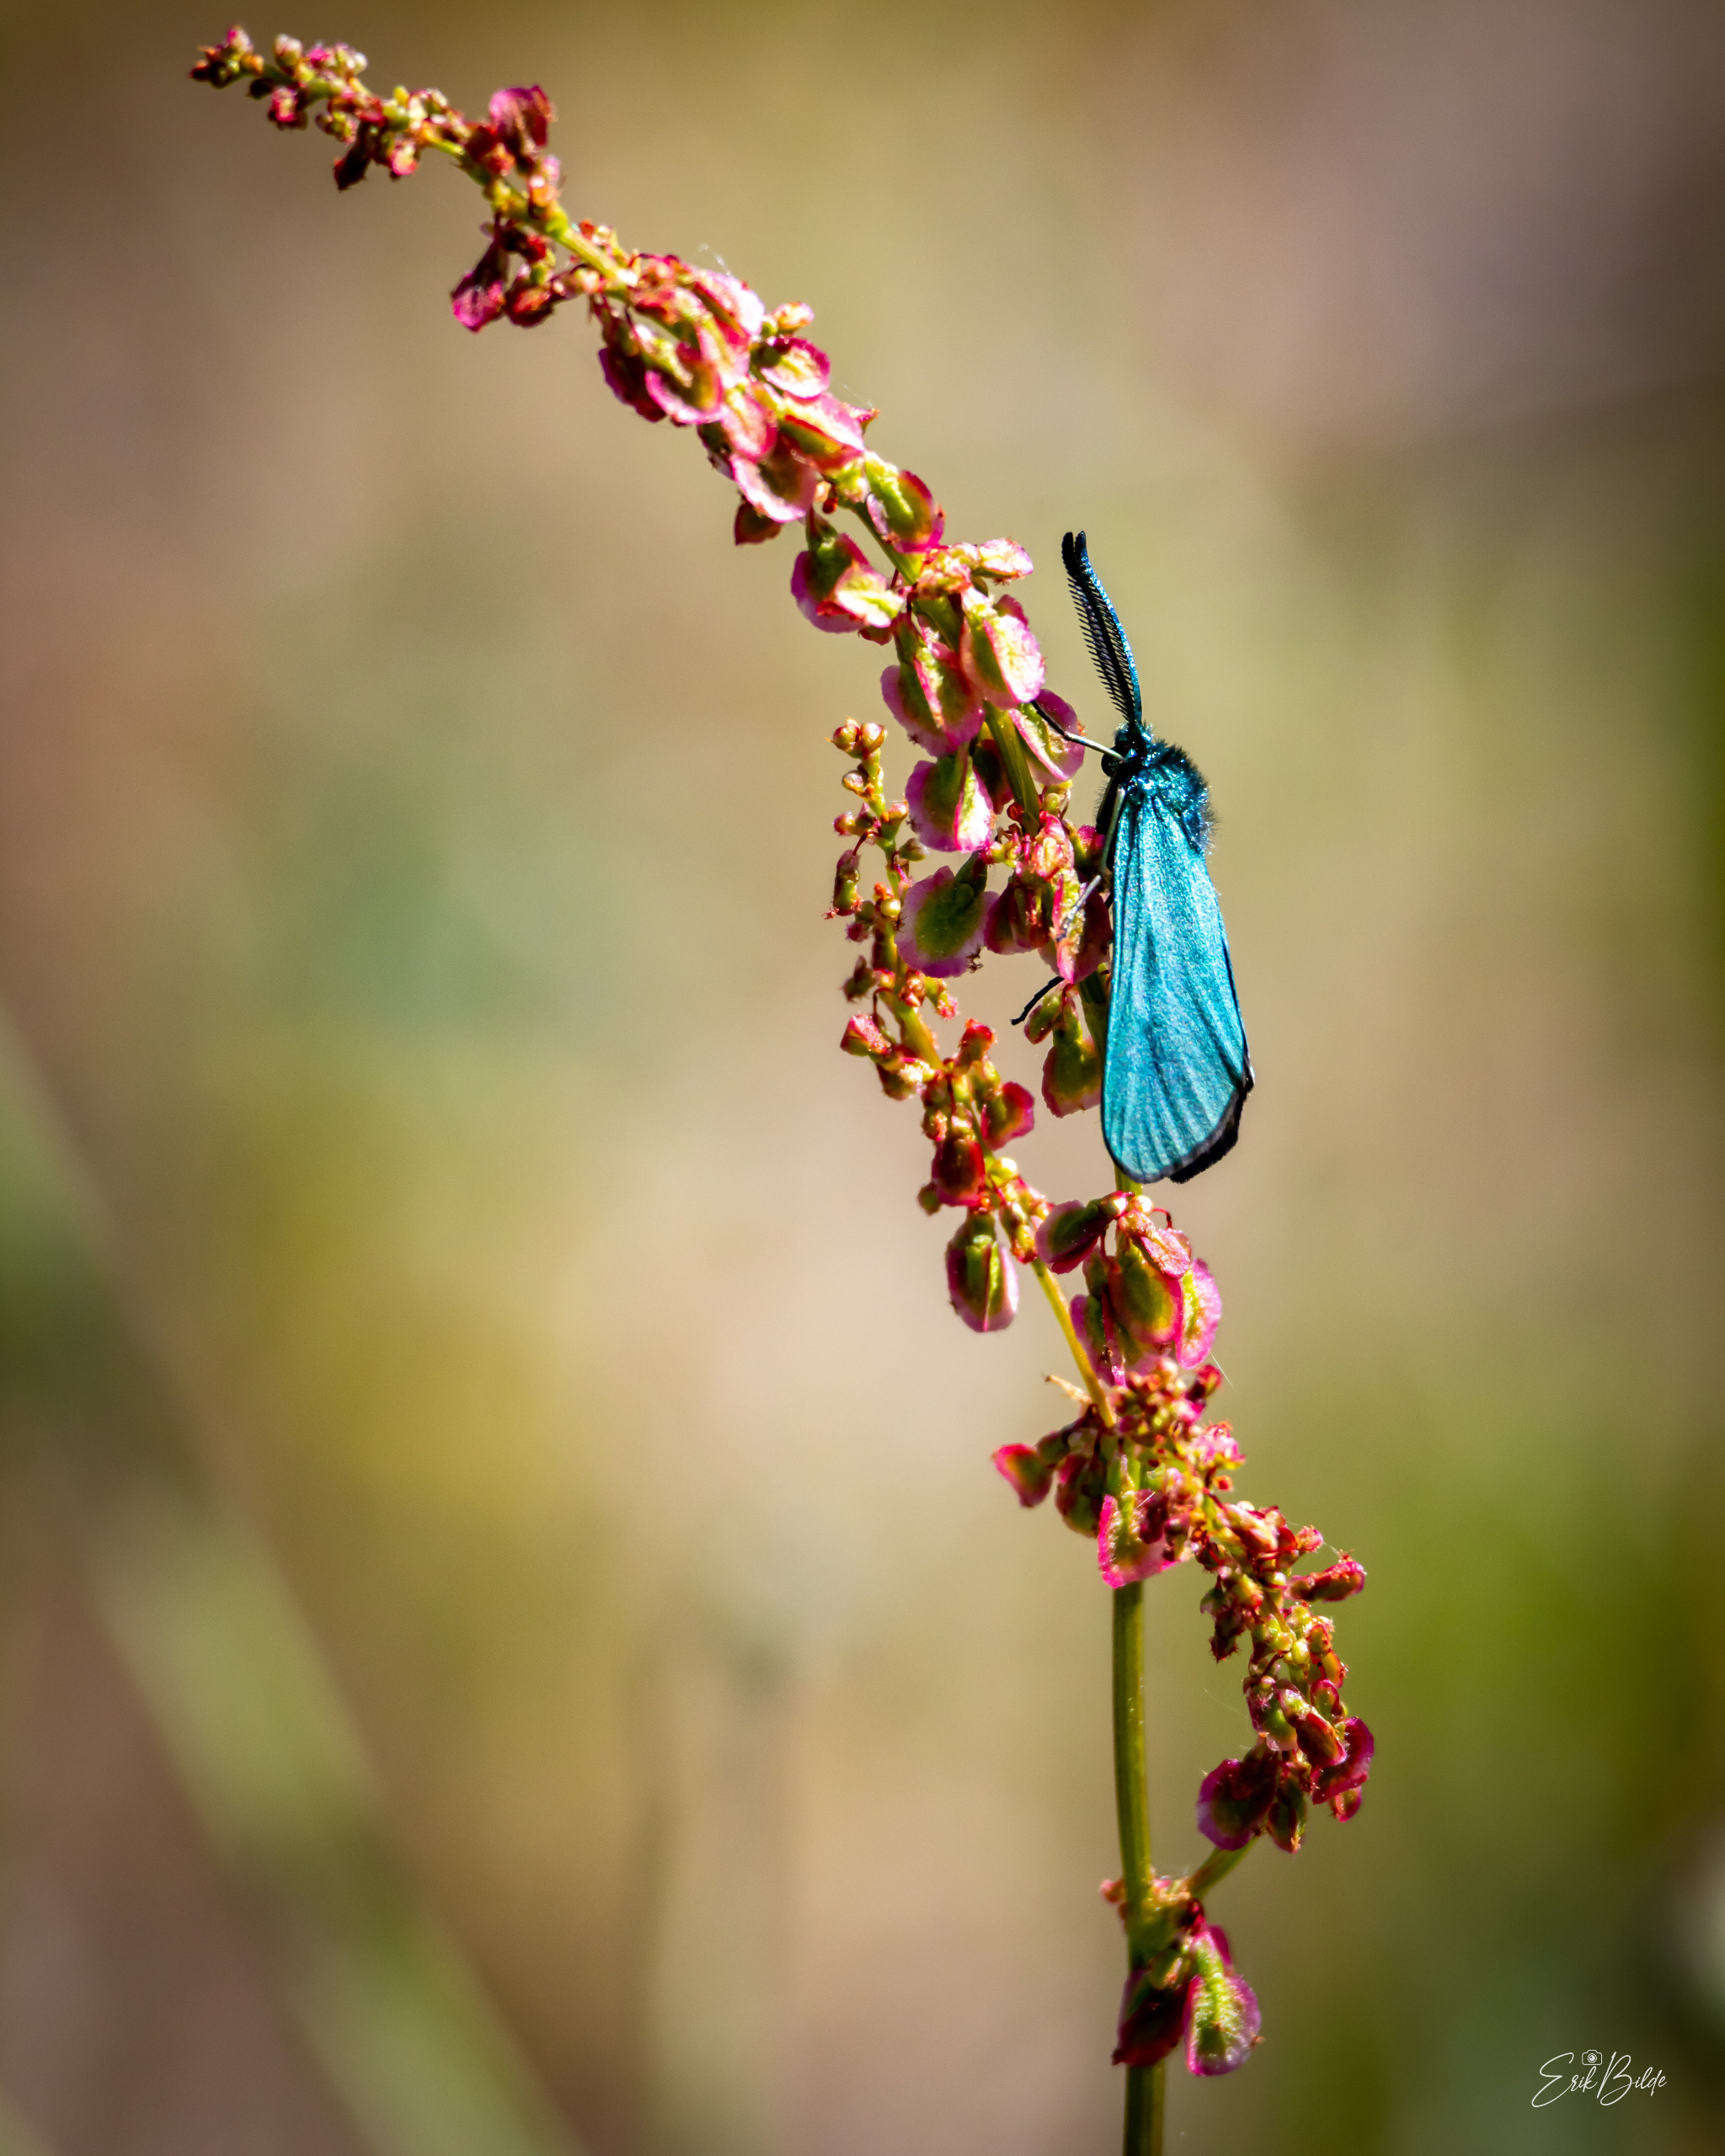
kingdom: Animalia
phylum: Arthropoda
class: Insecta
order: Lepidoptera
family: Zygaenidae
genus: Adscita
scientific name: Adscita statices
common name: Metalvinge
